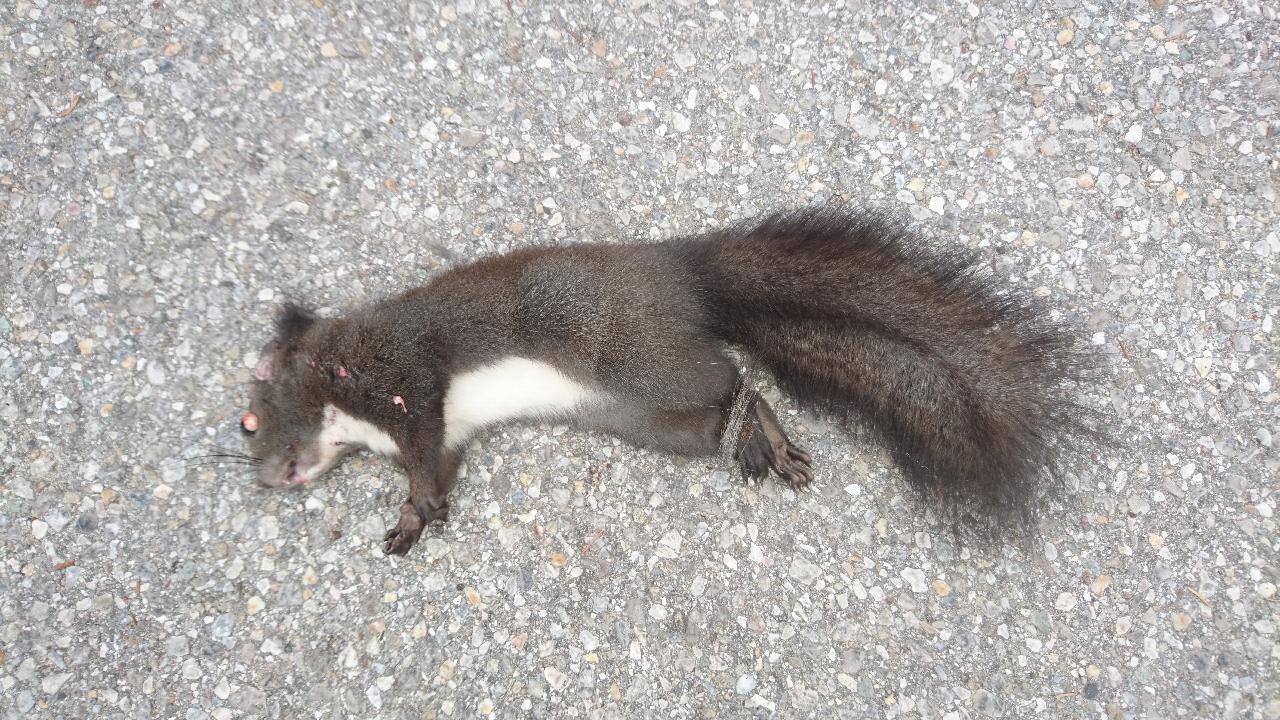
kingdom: Animalia
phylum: Chordata
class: Mammalia
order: Rodentia
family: Sciuridae
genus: Sciurus
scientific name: Sciurus vulgaris
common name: Eurasian red squirrel
